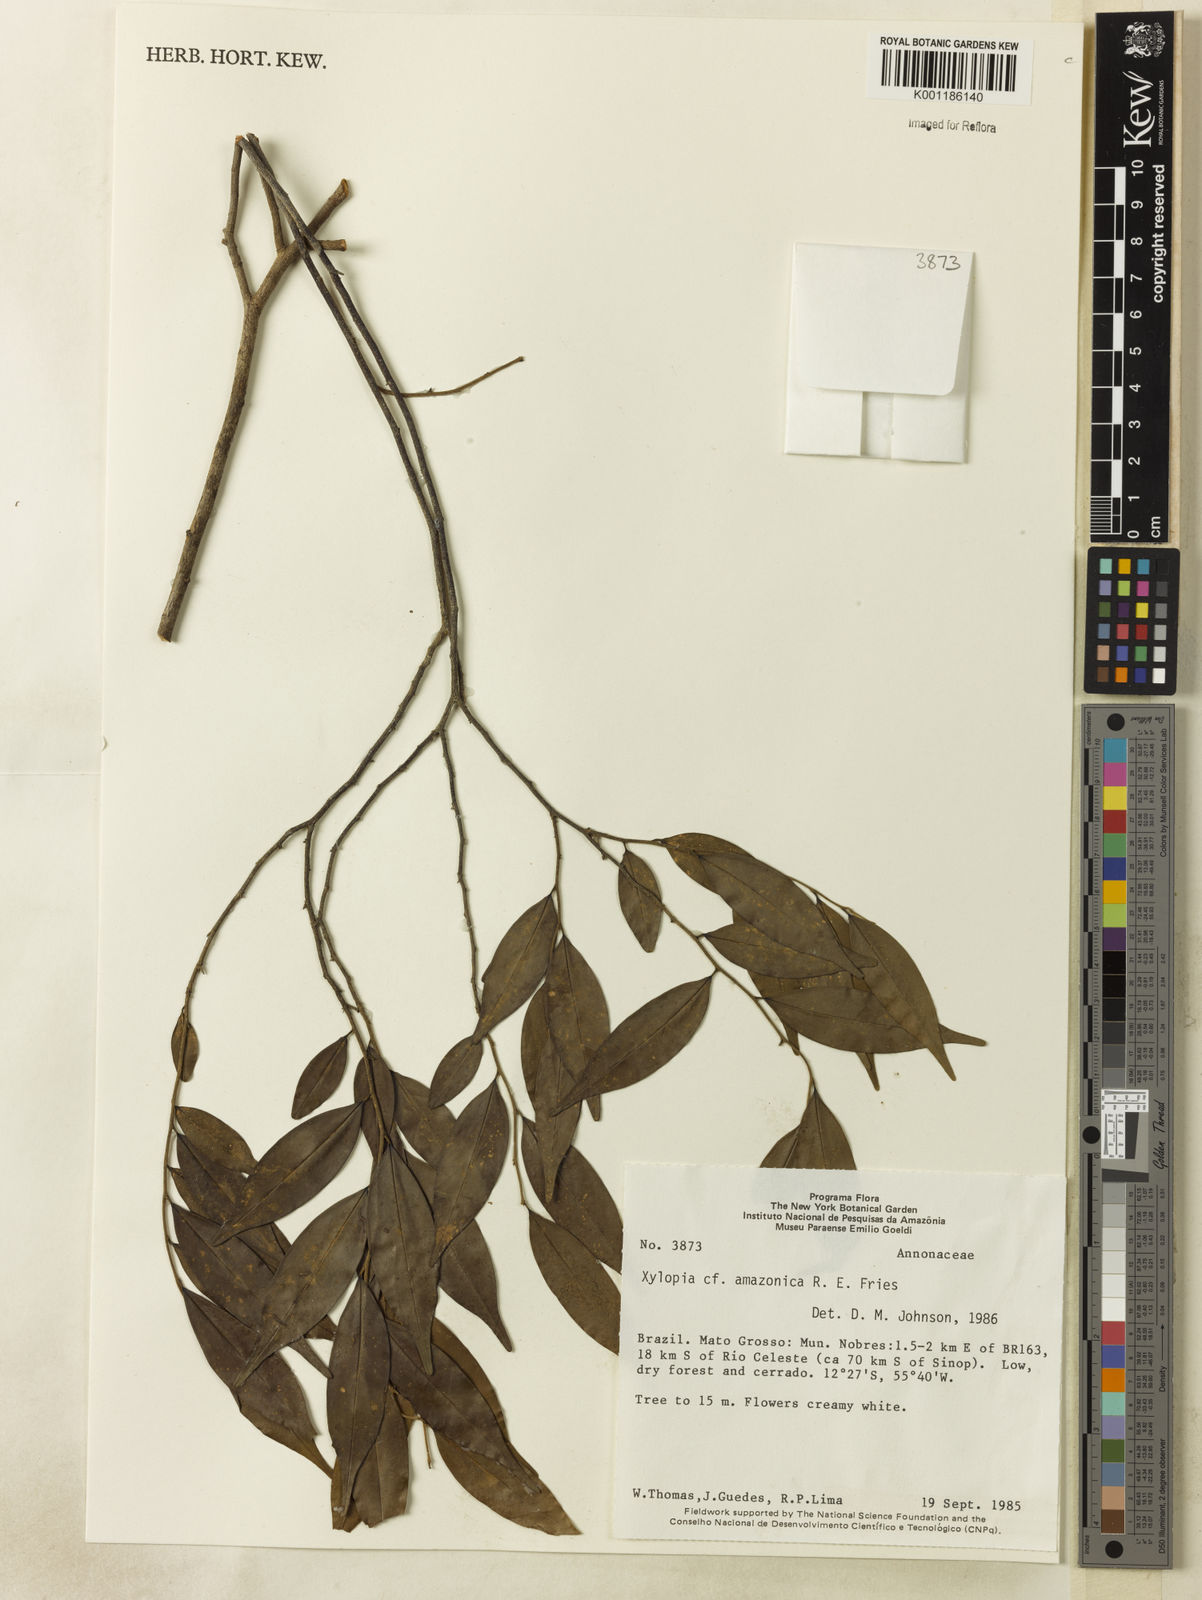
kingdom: Plantae
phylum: Tracheophyta
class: Magnoliopsida
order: Magnoliales
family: Annonaceae
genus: Xylopia
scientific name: Xylopia amazonica
